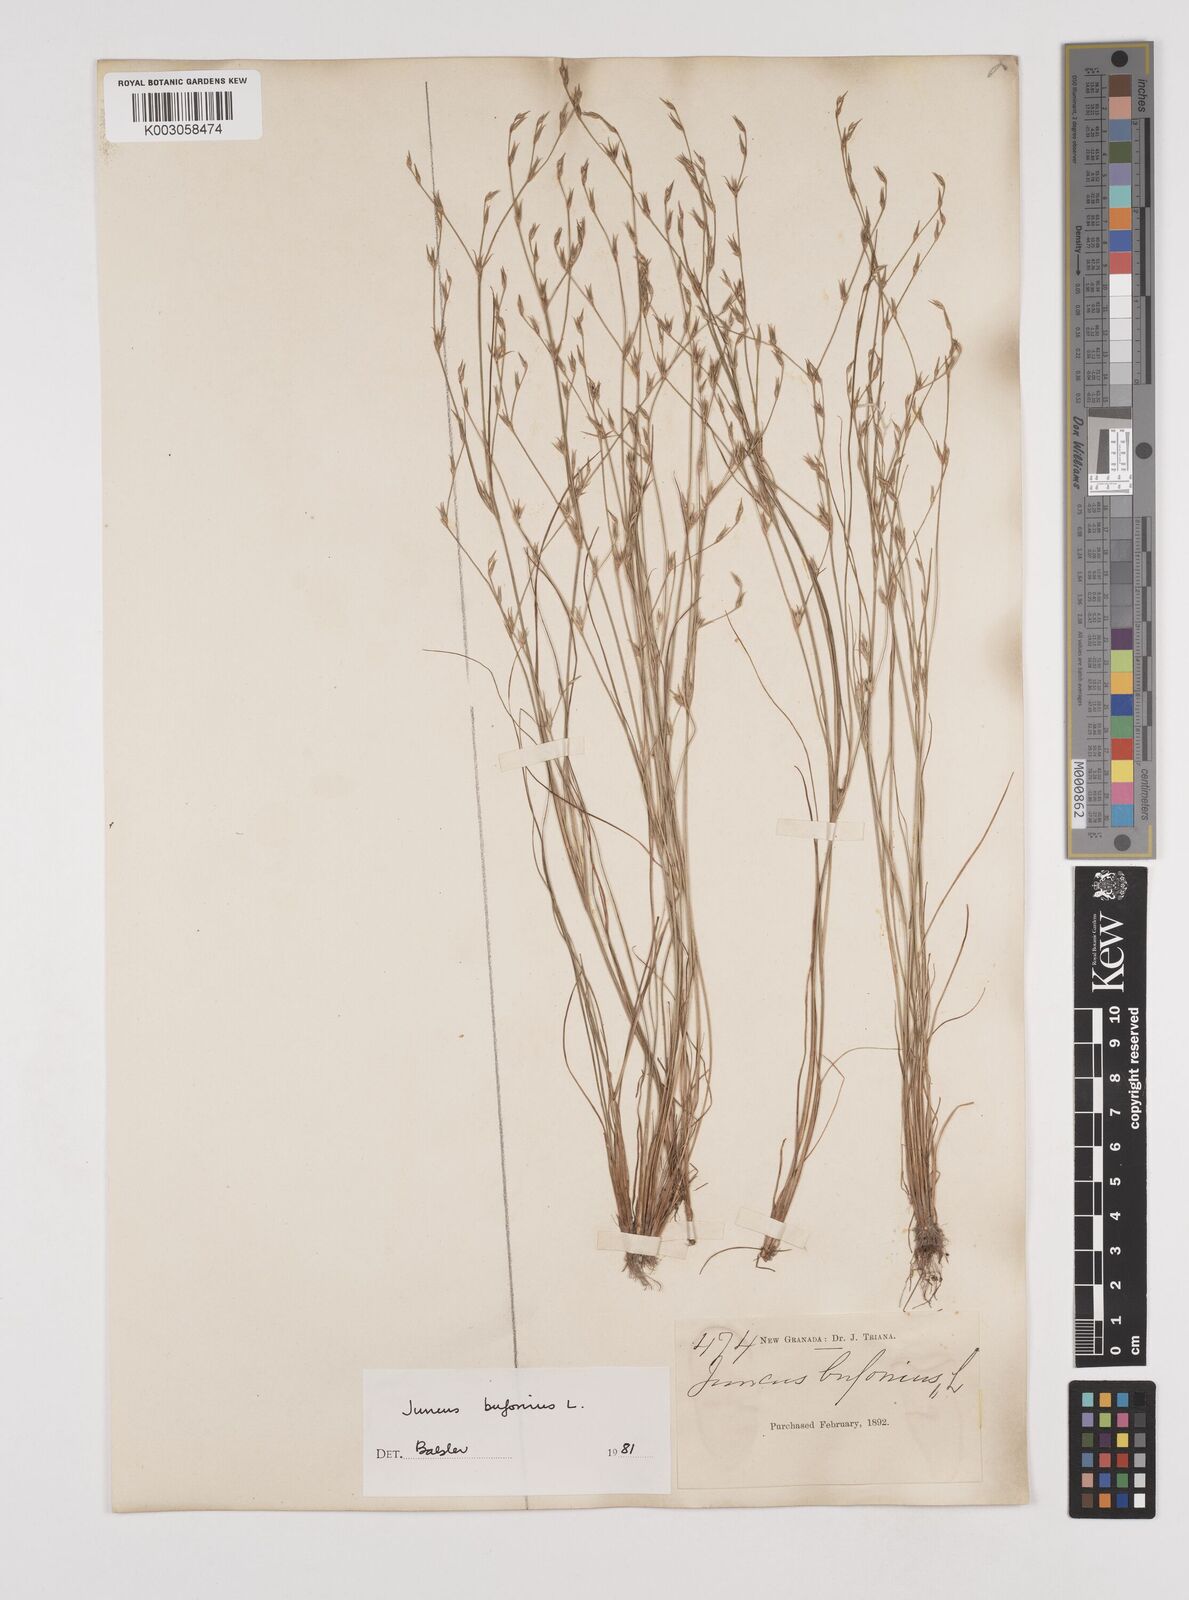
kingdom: Plantae
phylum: Tracheophyta
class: Liliopsida
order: Poales
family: Juncaceae
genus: Juncus
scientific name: Juncus bufonius
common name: Toad rush
